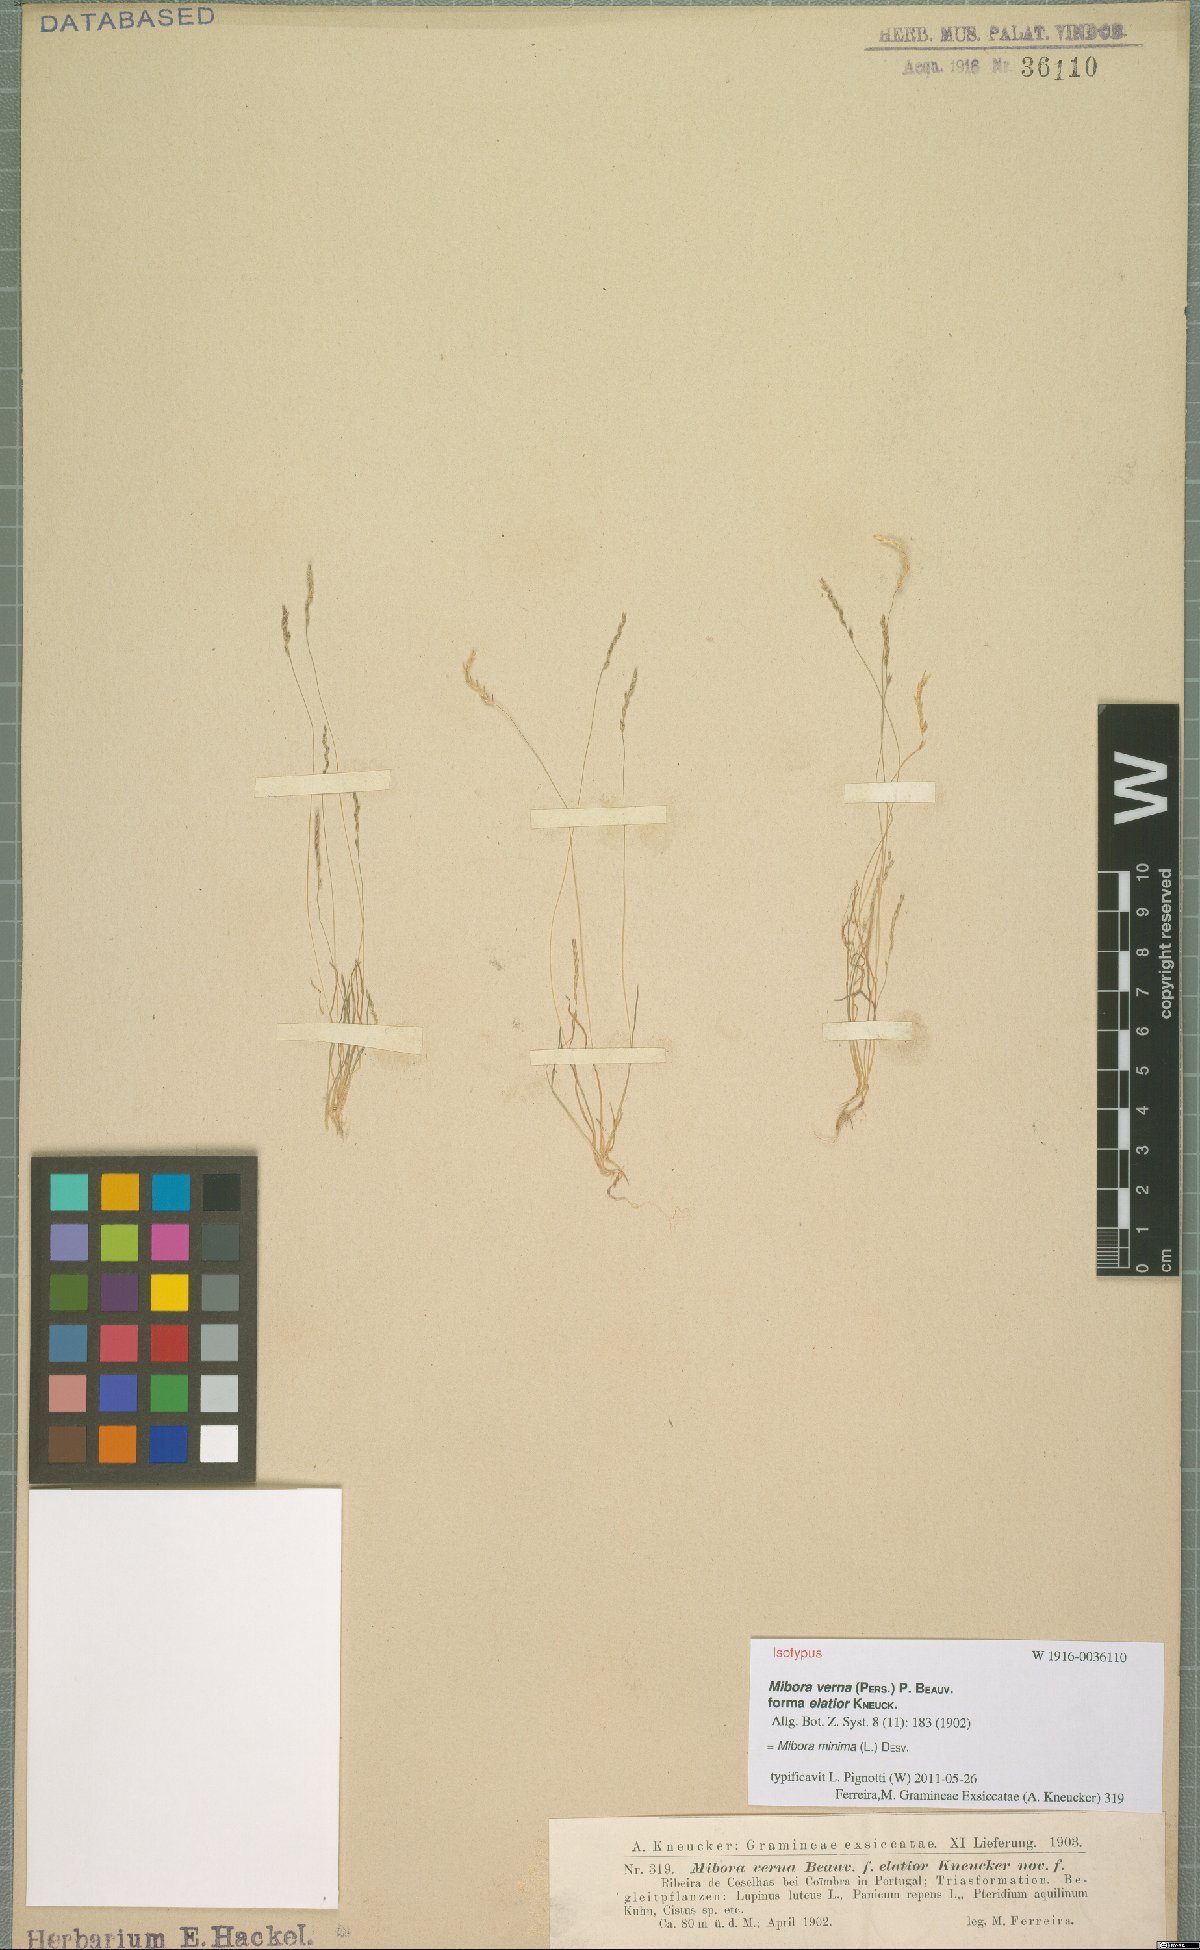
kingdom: Plantae
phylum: Tracheophyta
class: Liliopsida
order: Poales
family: Poaceae
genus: Mibora
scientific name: Mibora minima
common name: Early sand-grass
